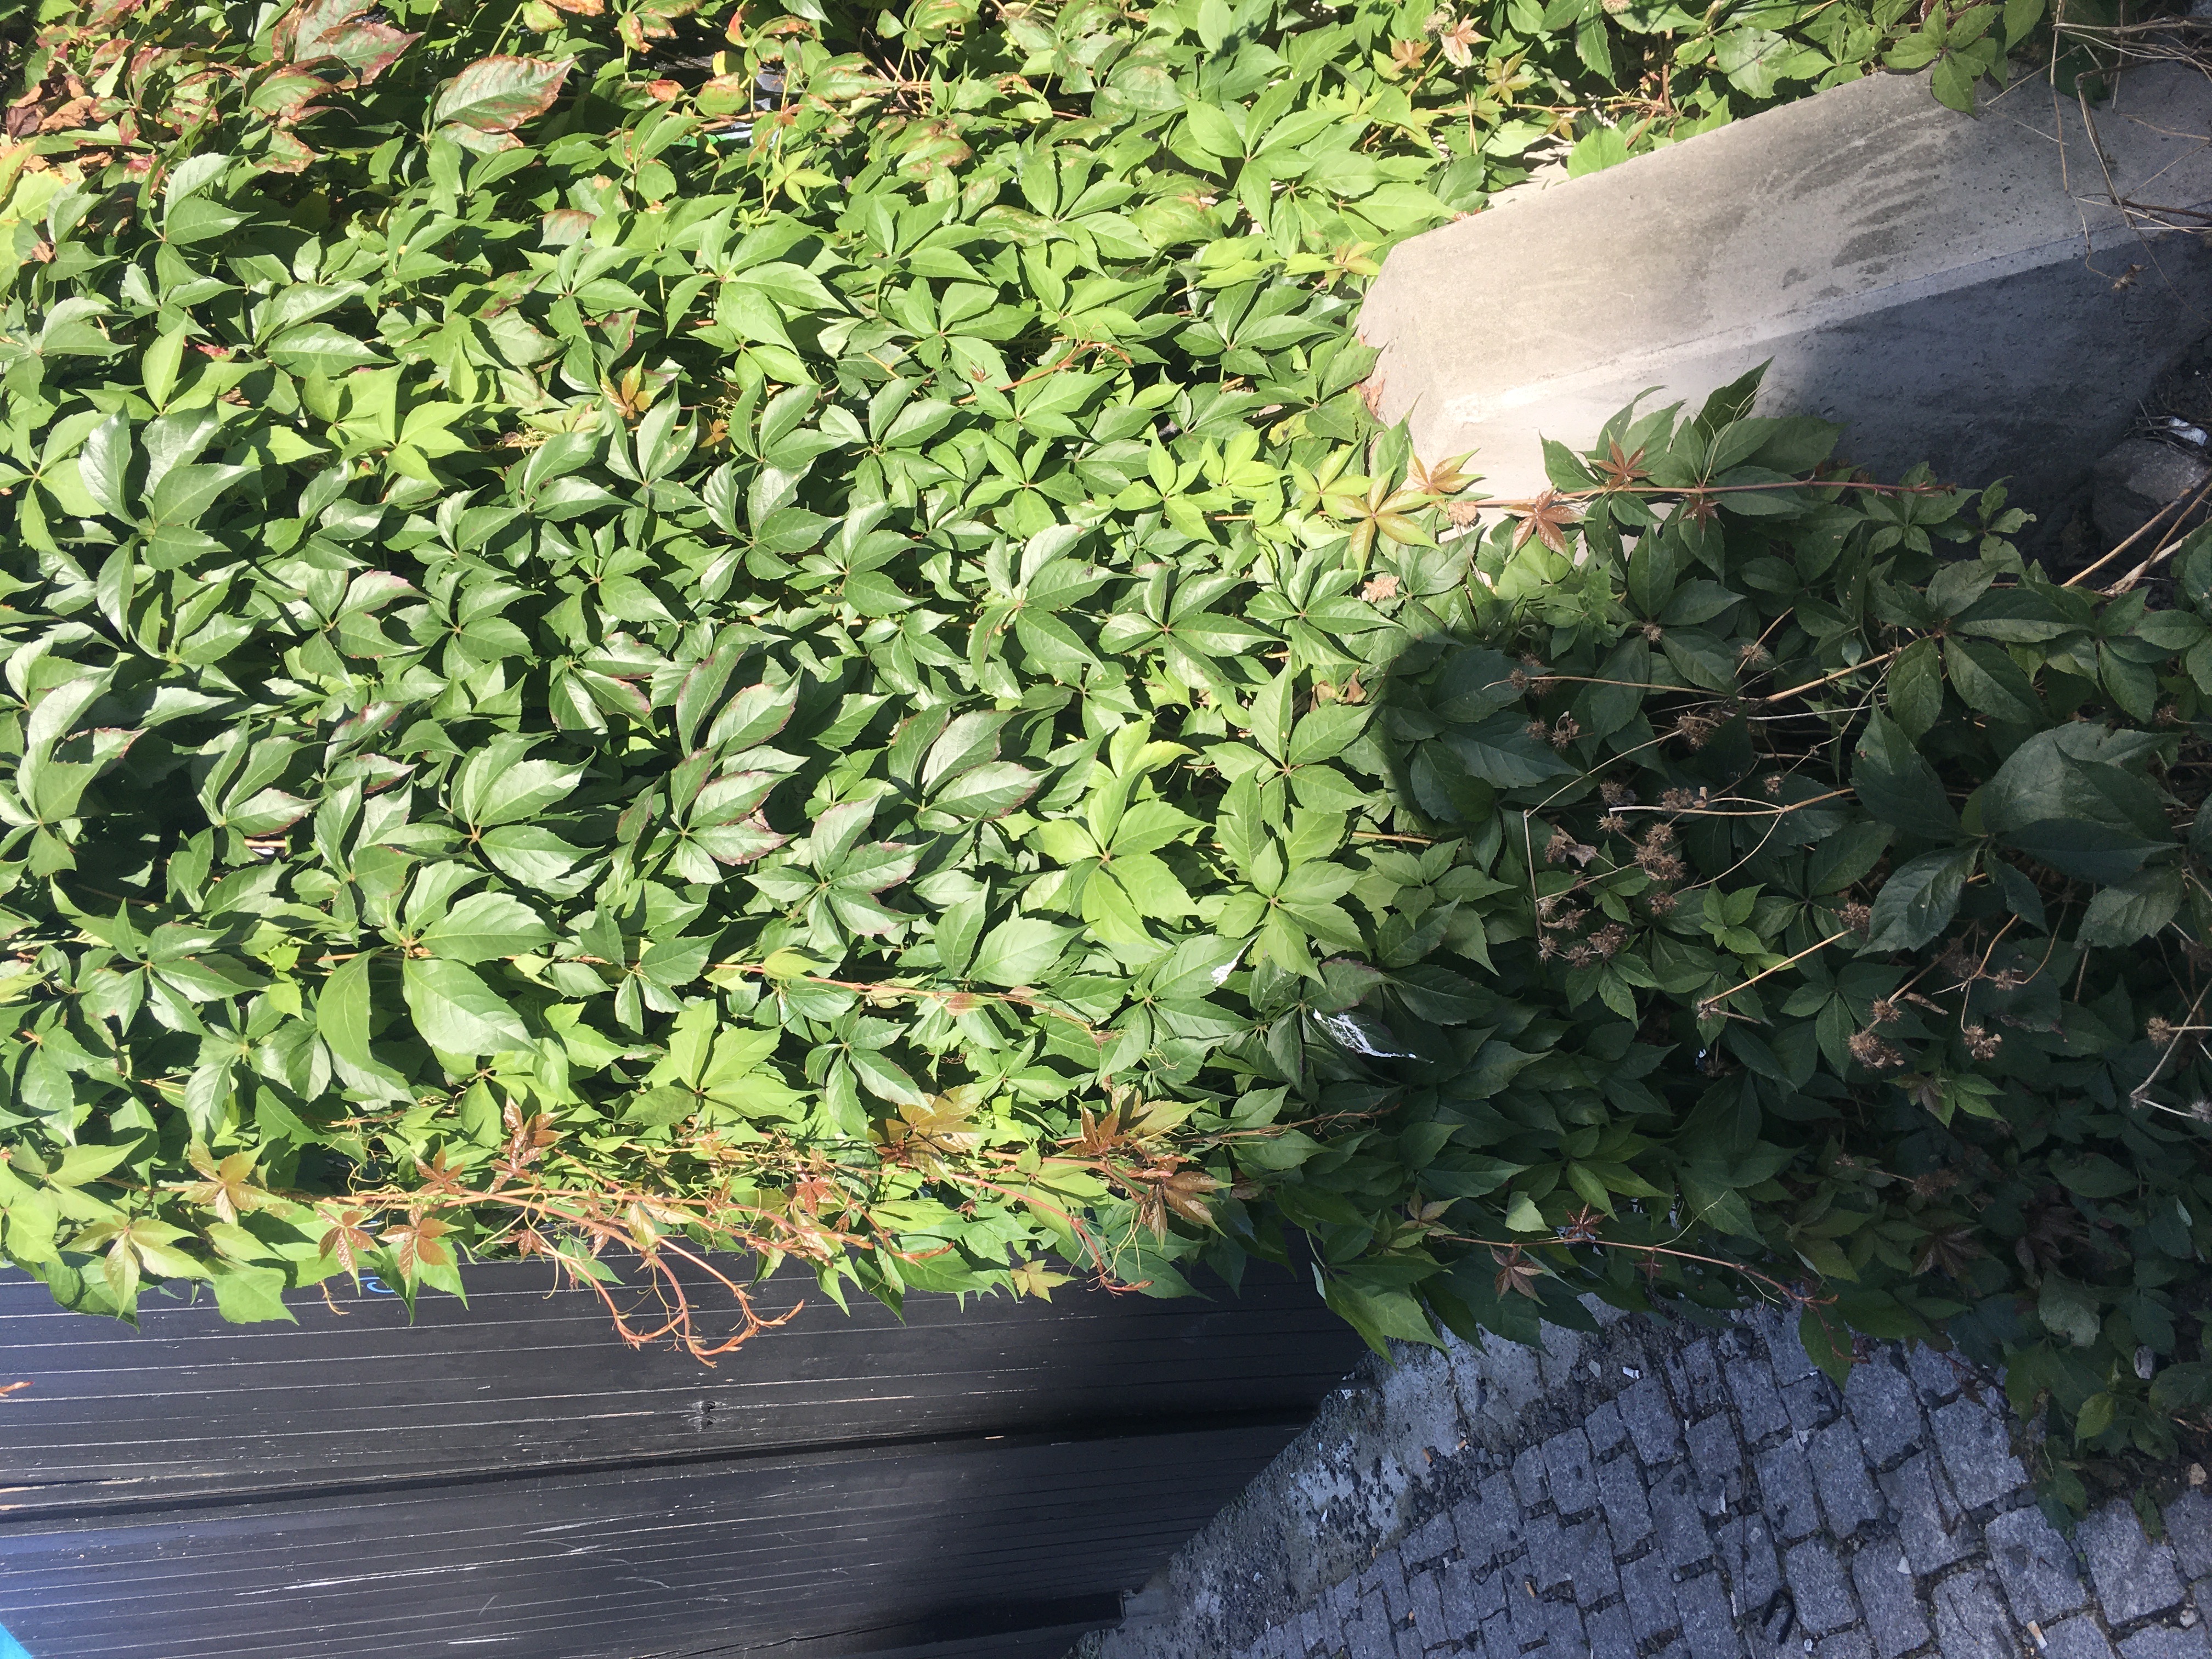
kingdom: Plantae
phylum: Tracheophyta
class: Magnoliopsida
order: Vitales
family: Vitaceae
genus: Parthenocissus
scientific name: Parthenocissus quinquefolia
